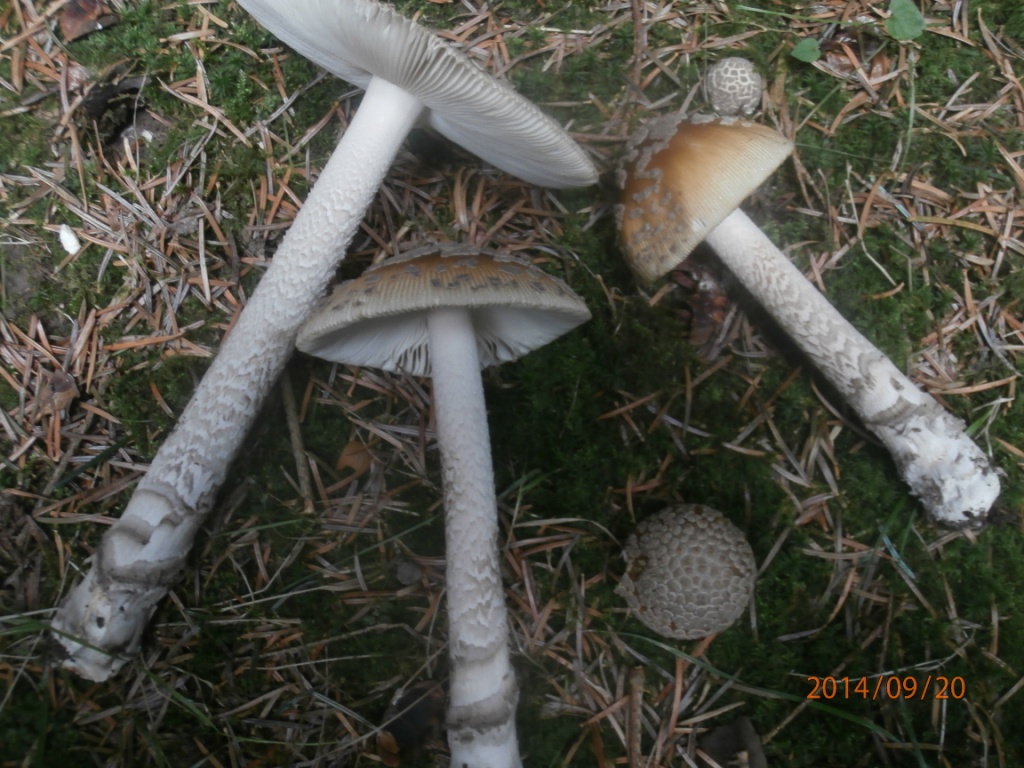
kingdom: Fungi
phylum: Basidiomycota
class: Agaricomycetes
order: Agaricales
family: Amanitaceae
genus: Amanita
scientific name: Amanita ceciliae
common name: stor kam-fluesvamp
